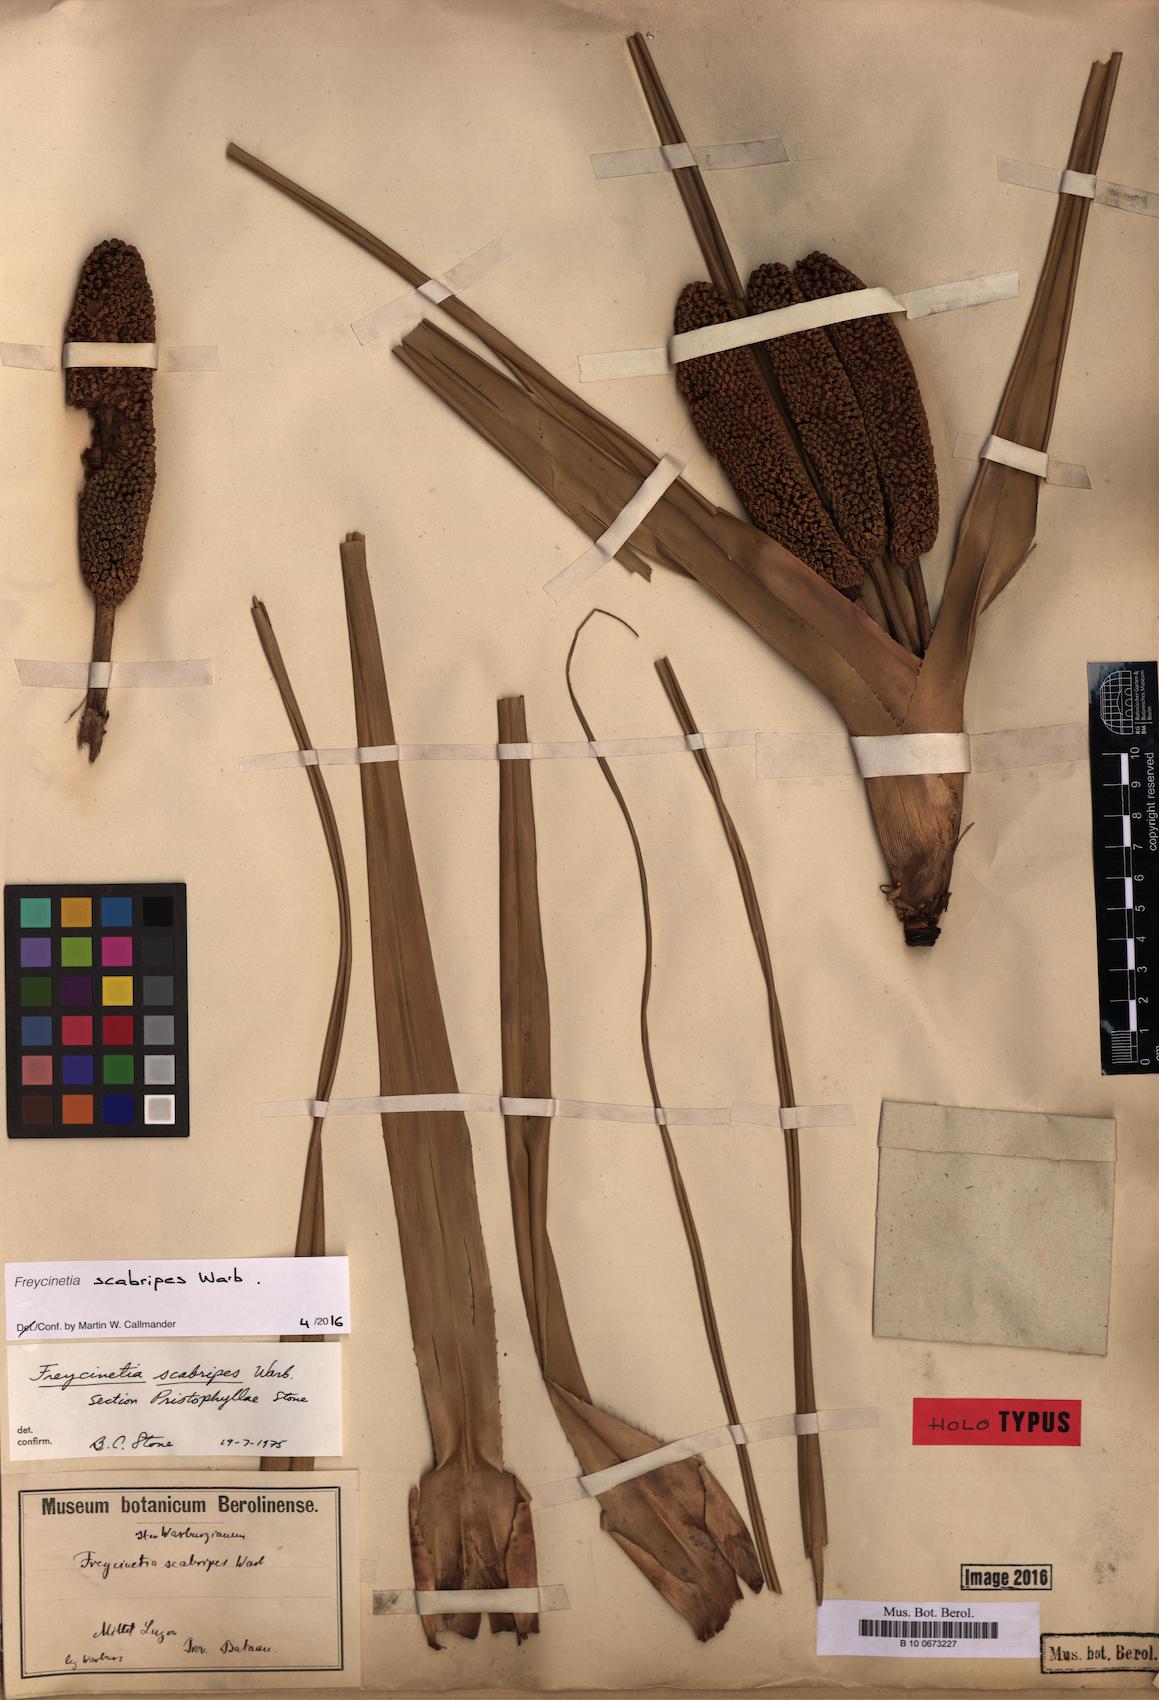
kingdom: Plantae
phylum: Tracheophyta
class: Liliopsida
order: Pandanales
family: Pandanaceae
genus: Freycinetia
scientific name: Freycinetia scabripes
